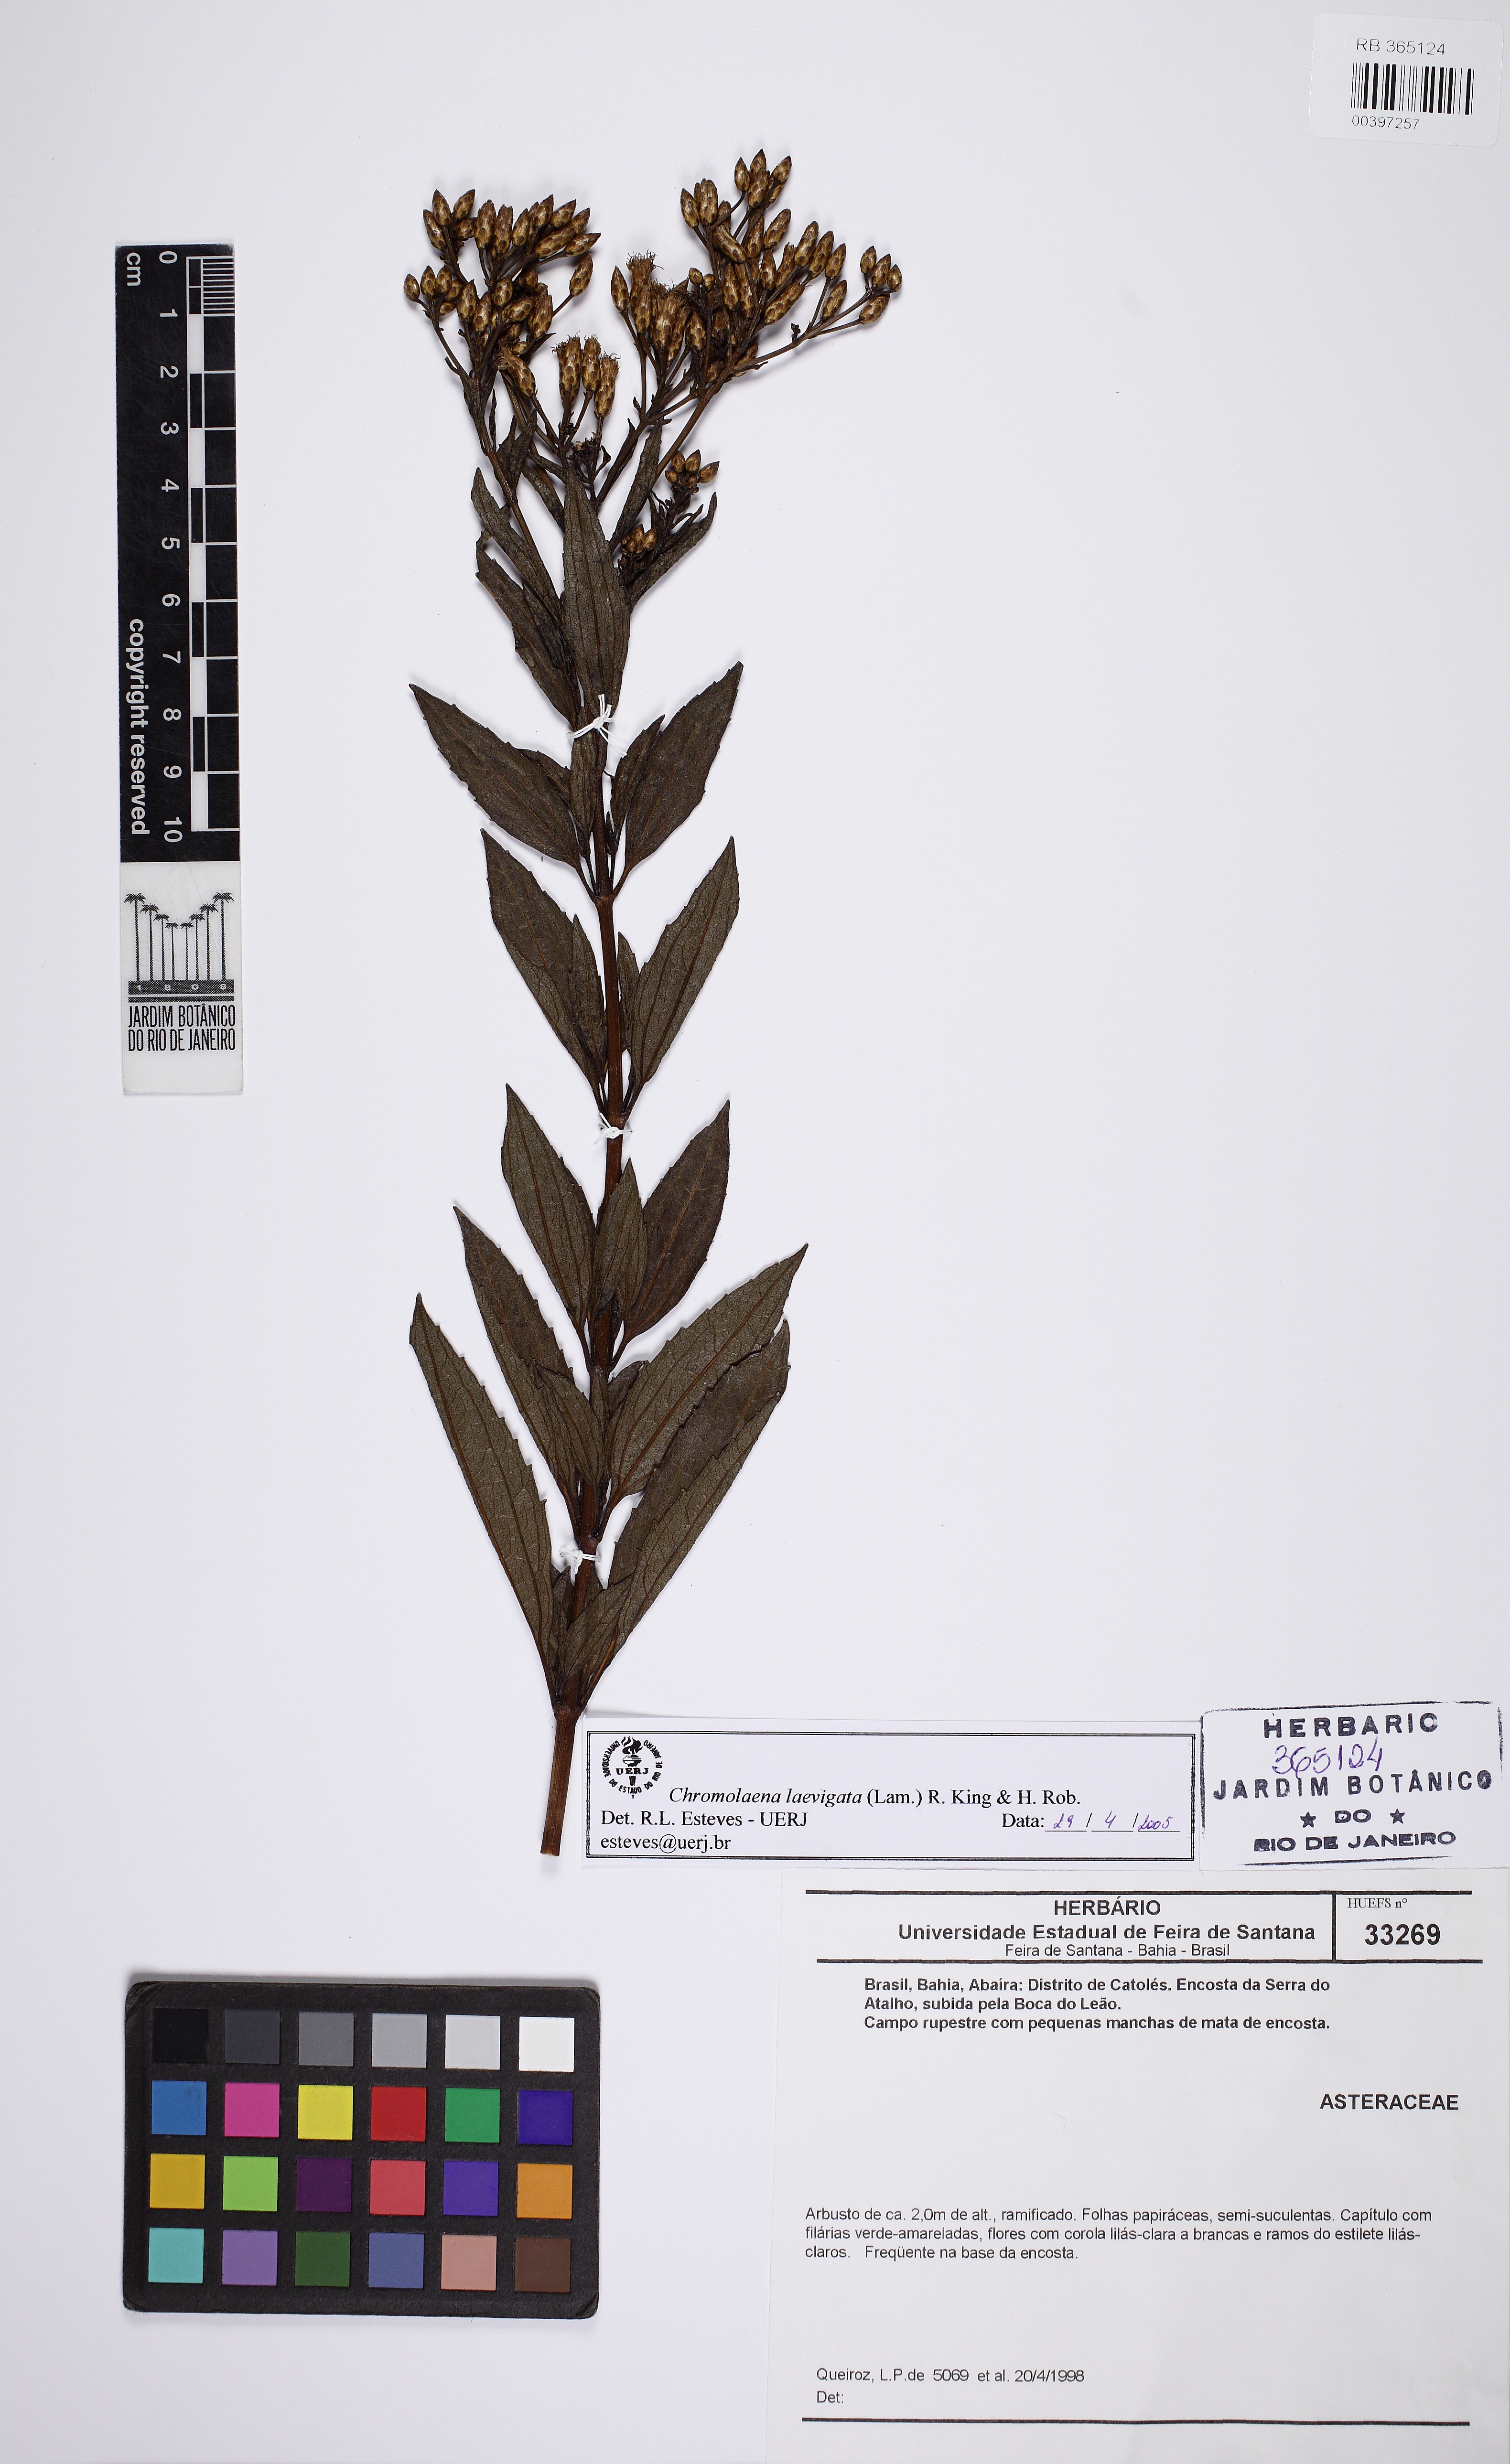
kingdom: Plantae
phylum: Tracheophyta
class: Magnoliopsida
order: Asterales
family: Asteraceae
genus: Chromolaena
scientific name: Chromolaena laevigata
